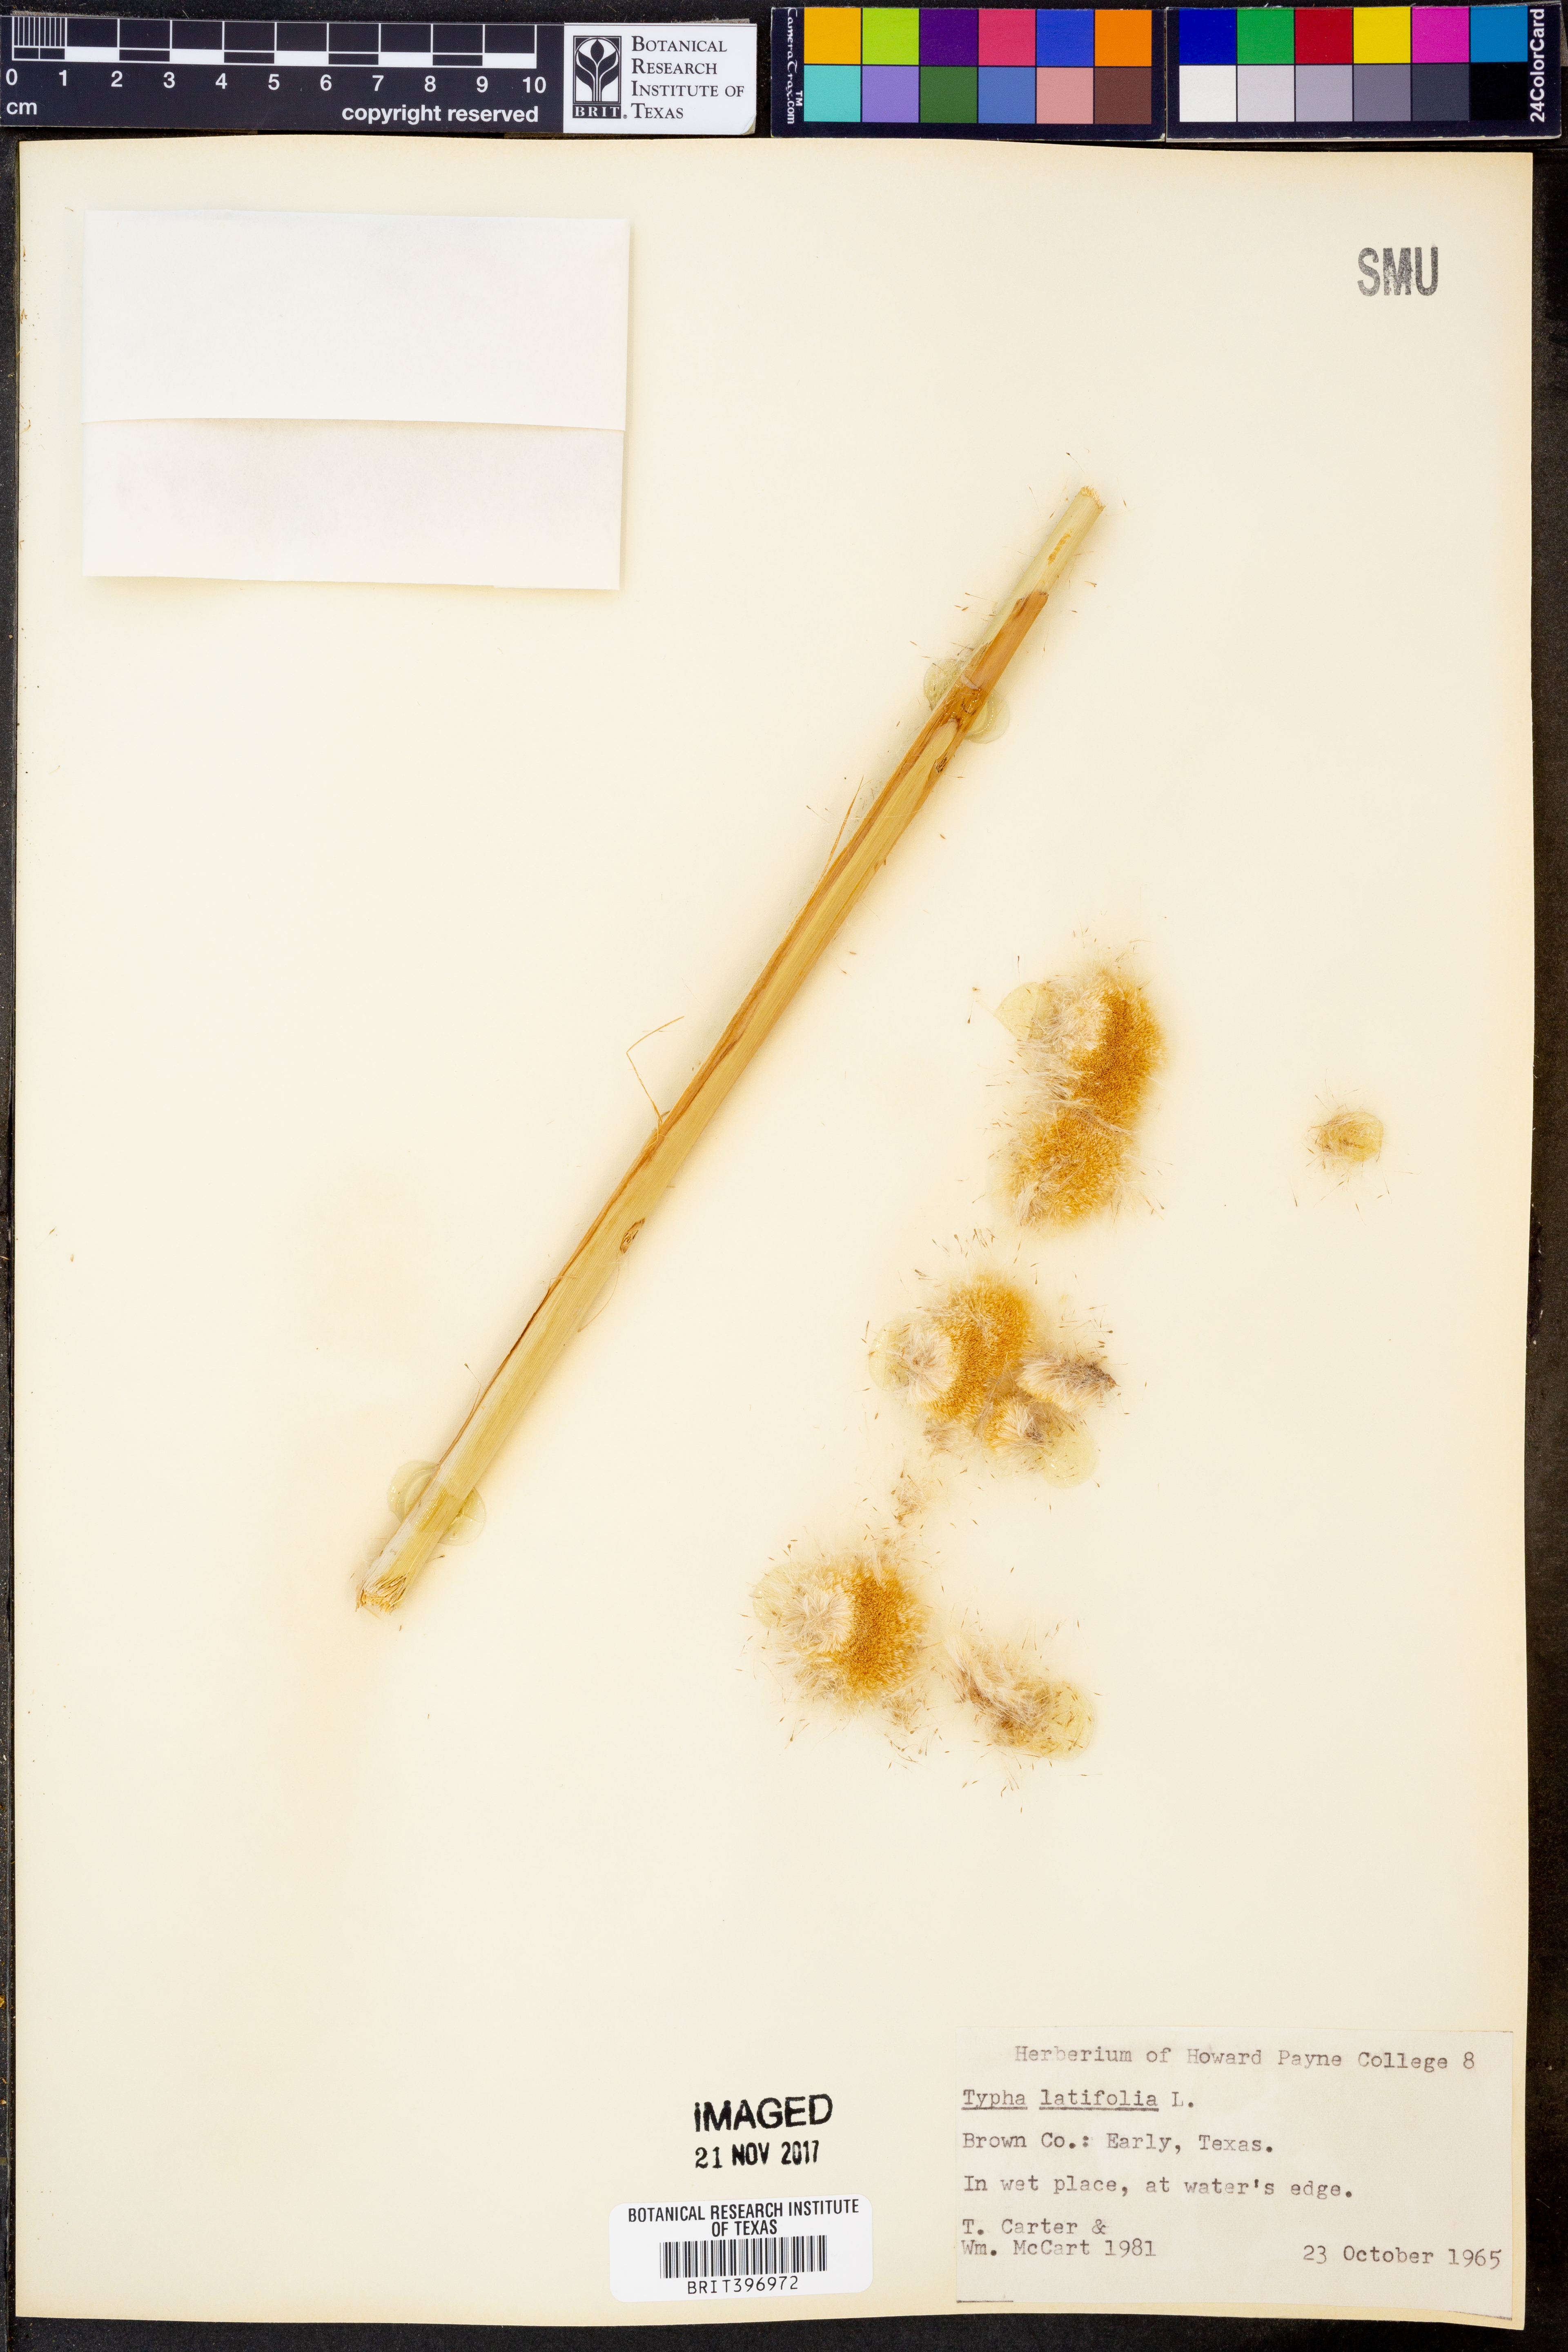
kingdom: Plantae
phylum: Tracheophyta
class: Liliopsida
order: Poales
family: Typhaceae
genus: Typha
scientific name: Typha latifolia
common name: Broadleaf cattail
